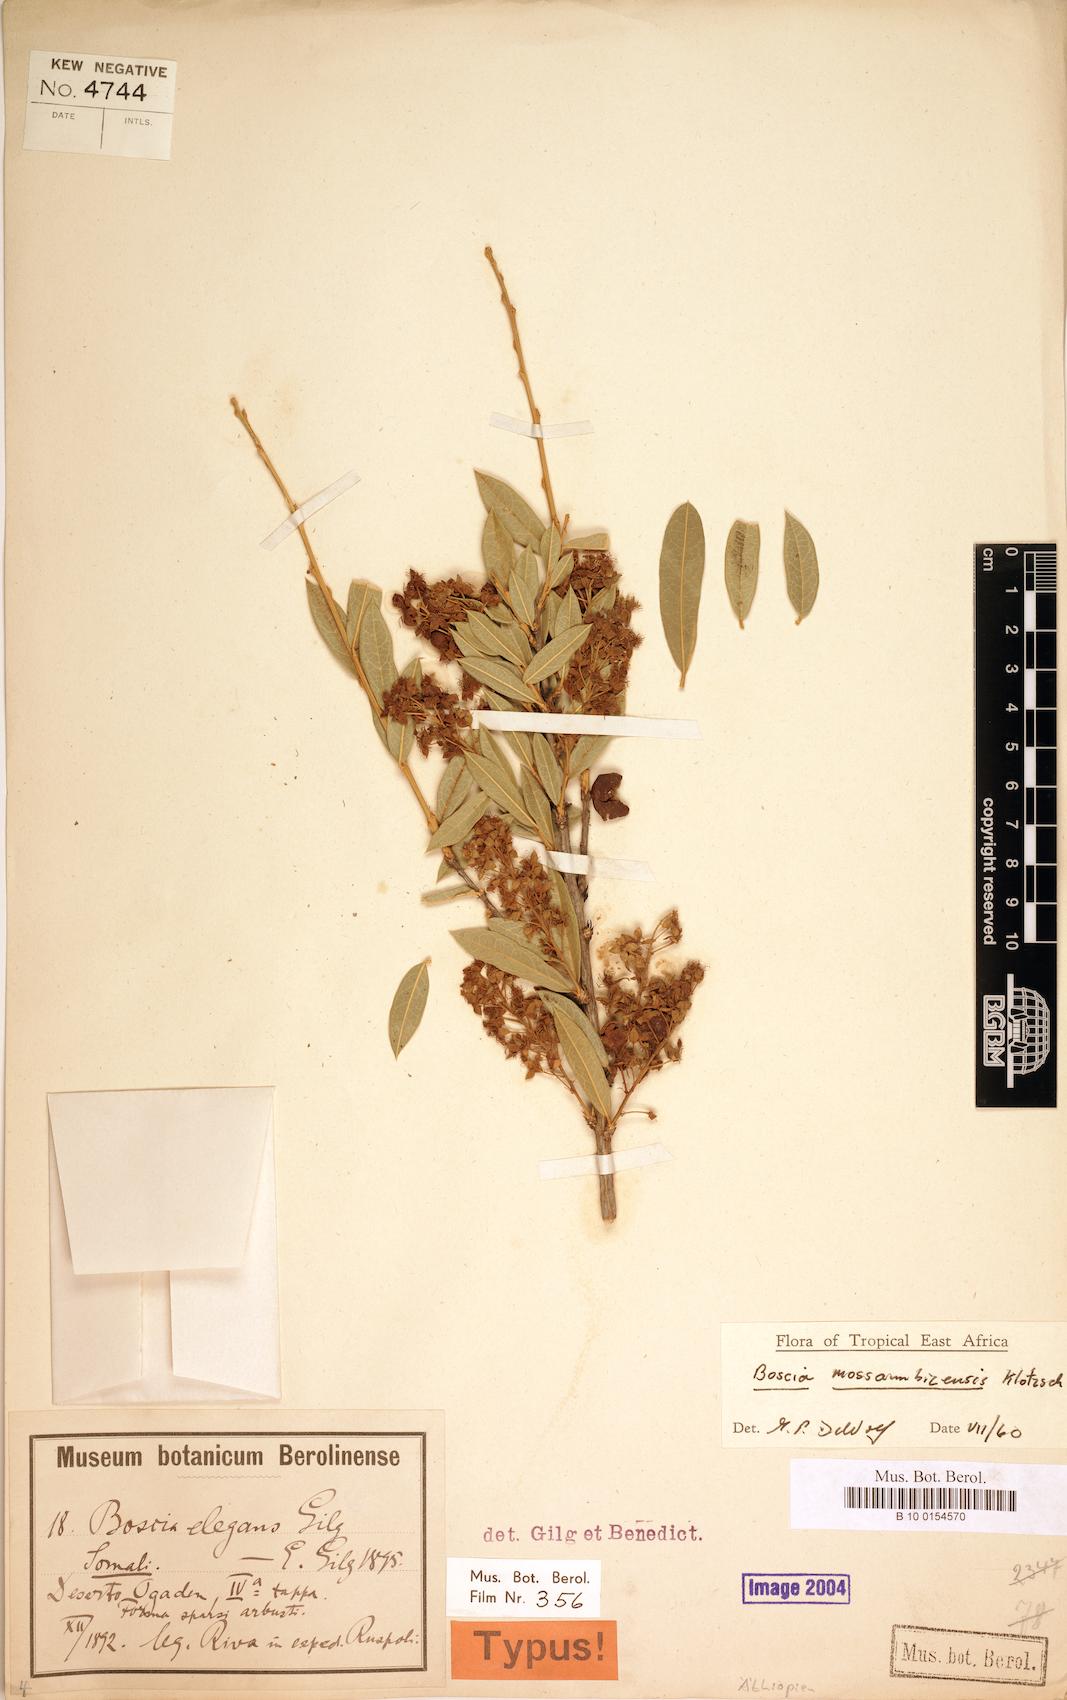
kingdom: Plantae
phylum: Tracheophyta
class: Magnoliopsida
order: Brassicales
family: Capparaceae
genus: Boscia
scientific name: Boscia mossambicensis
